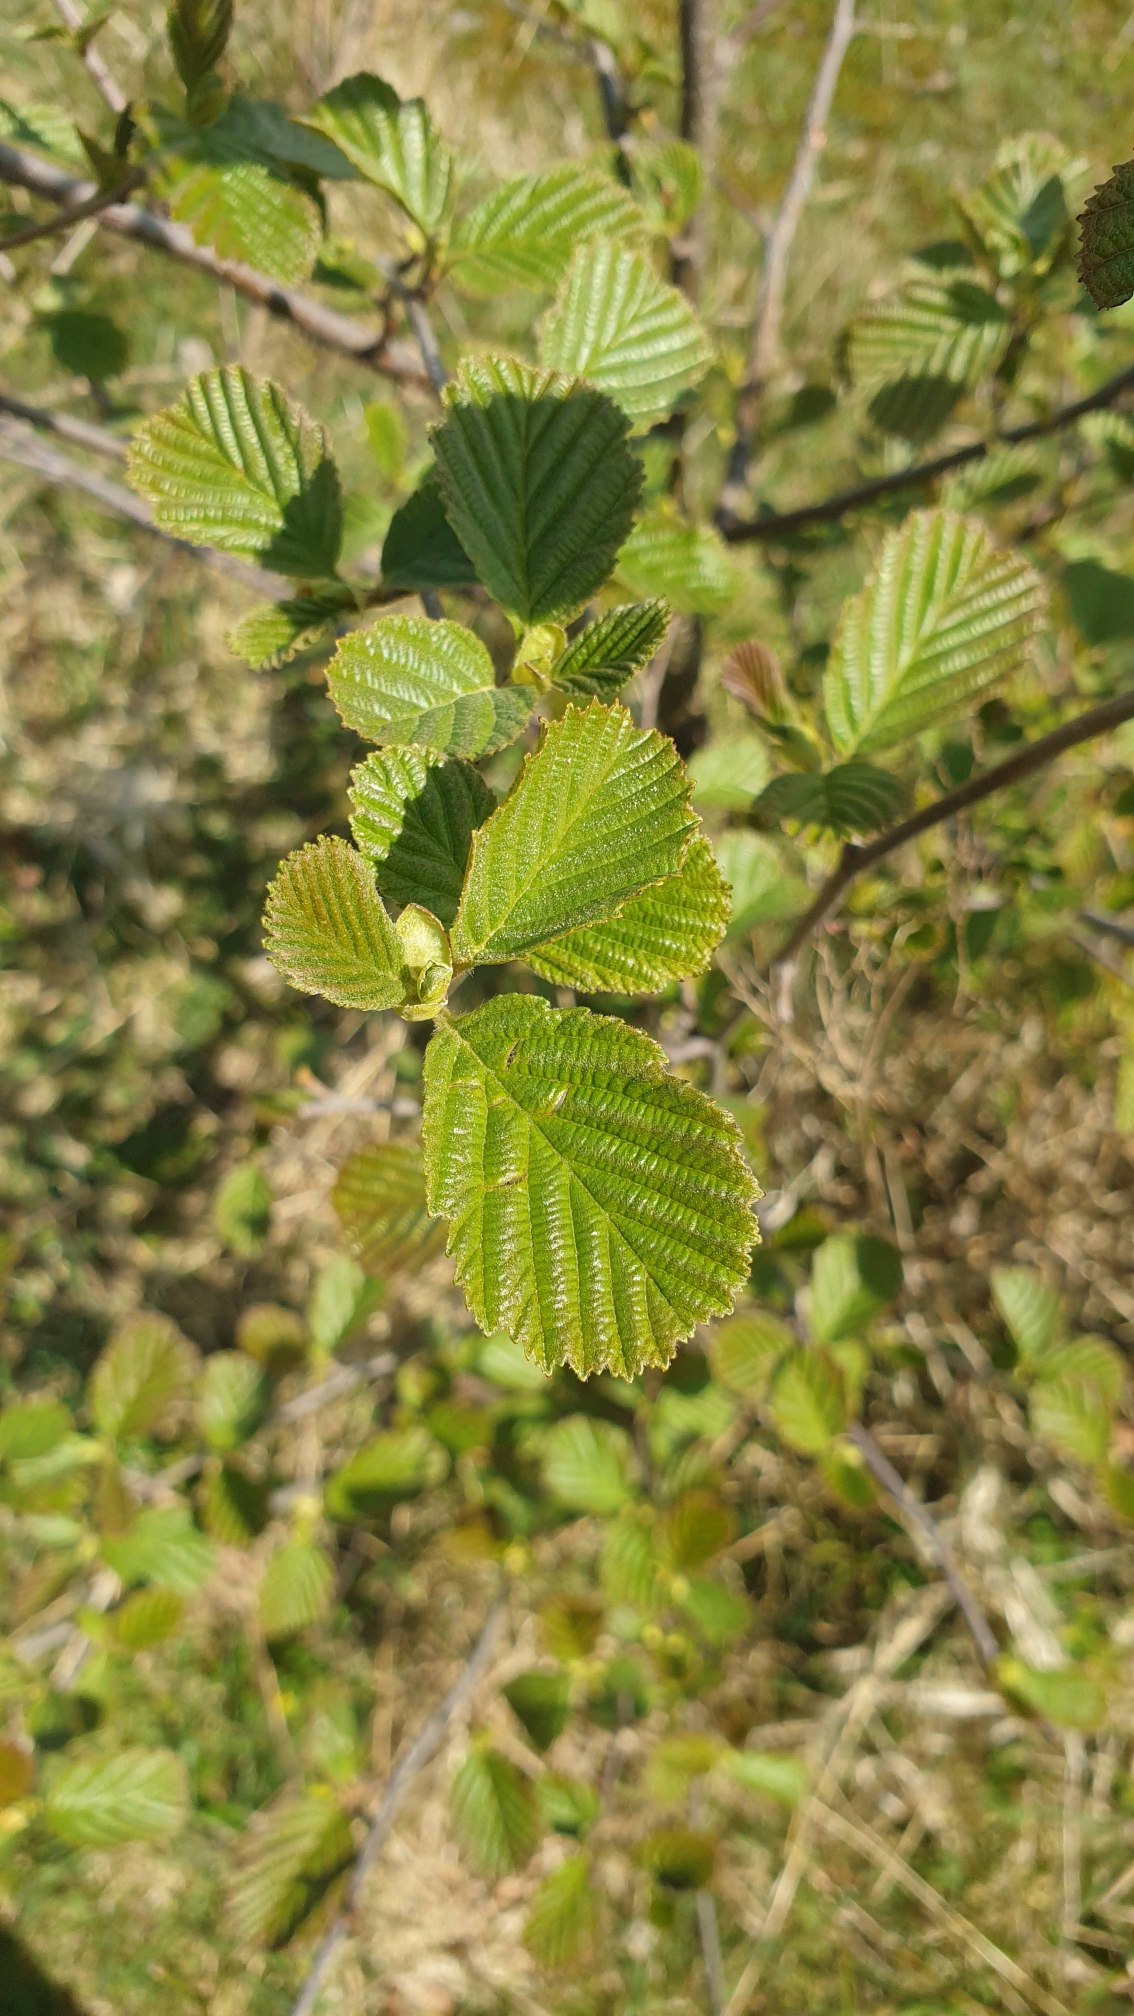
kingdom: Plantae
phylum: Tracheophyta
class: Magnoliopsida
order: Fagales
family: Betulaceae
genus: Alnus
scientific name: Alnus glutinosa
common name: Rød-el
